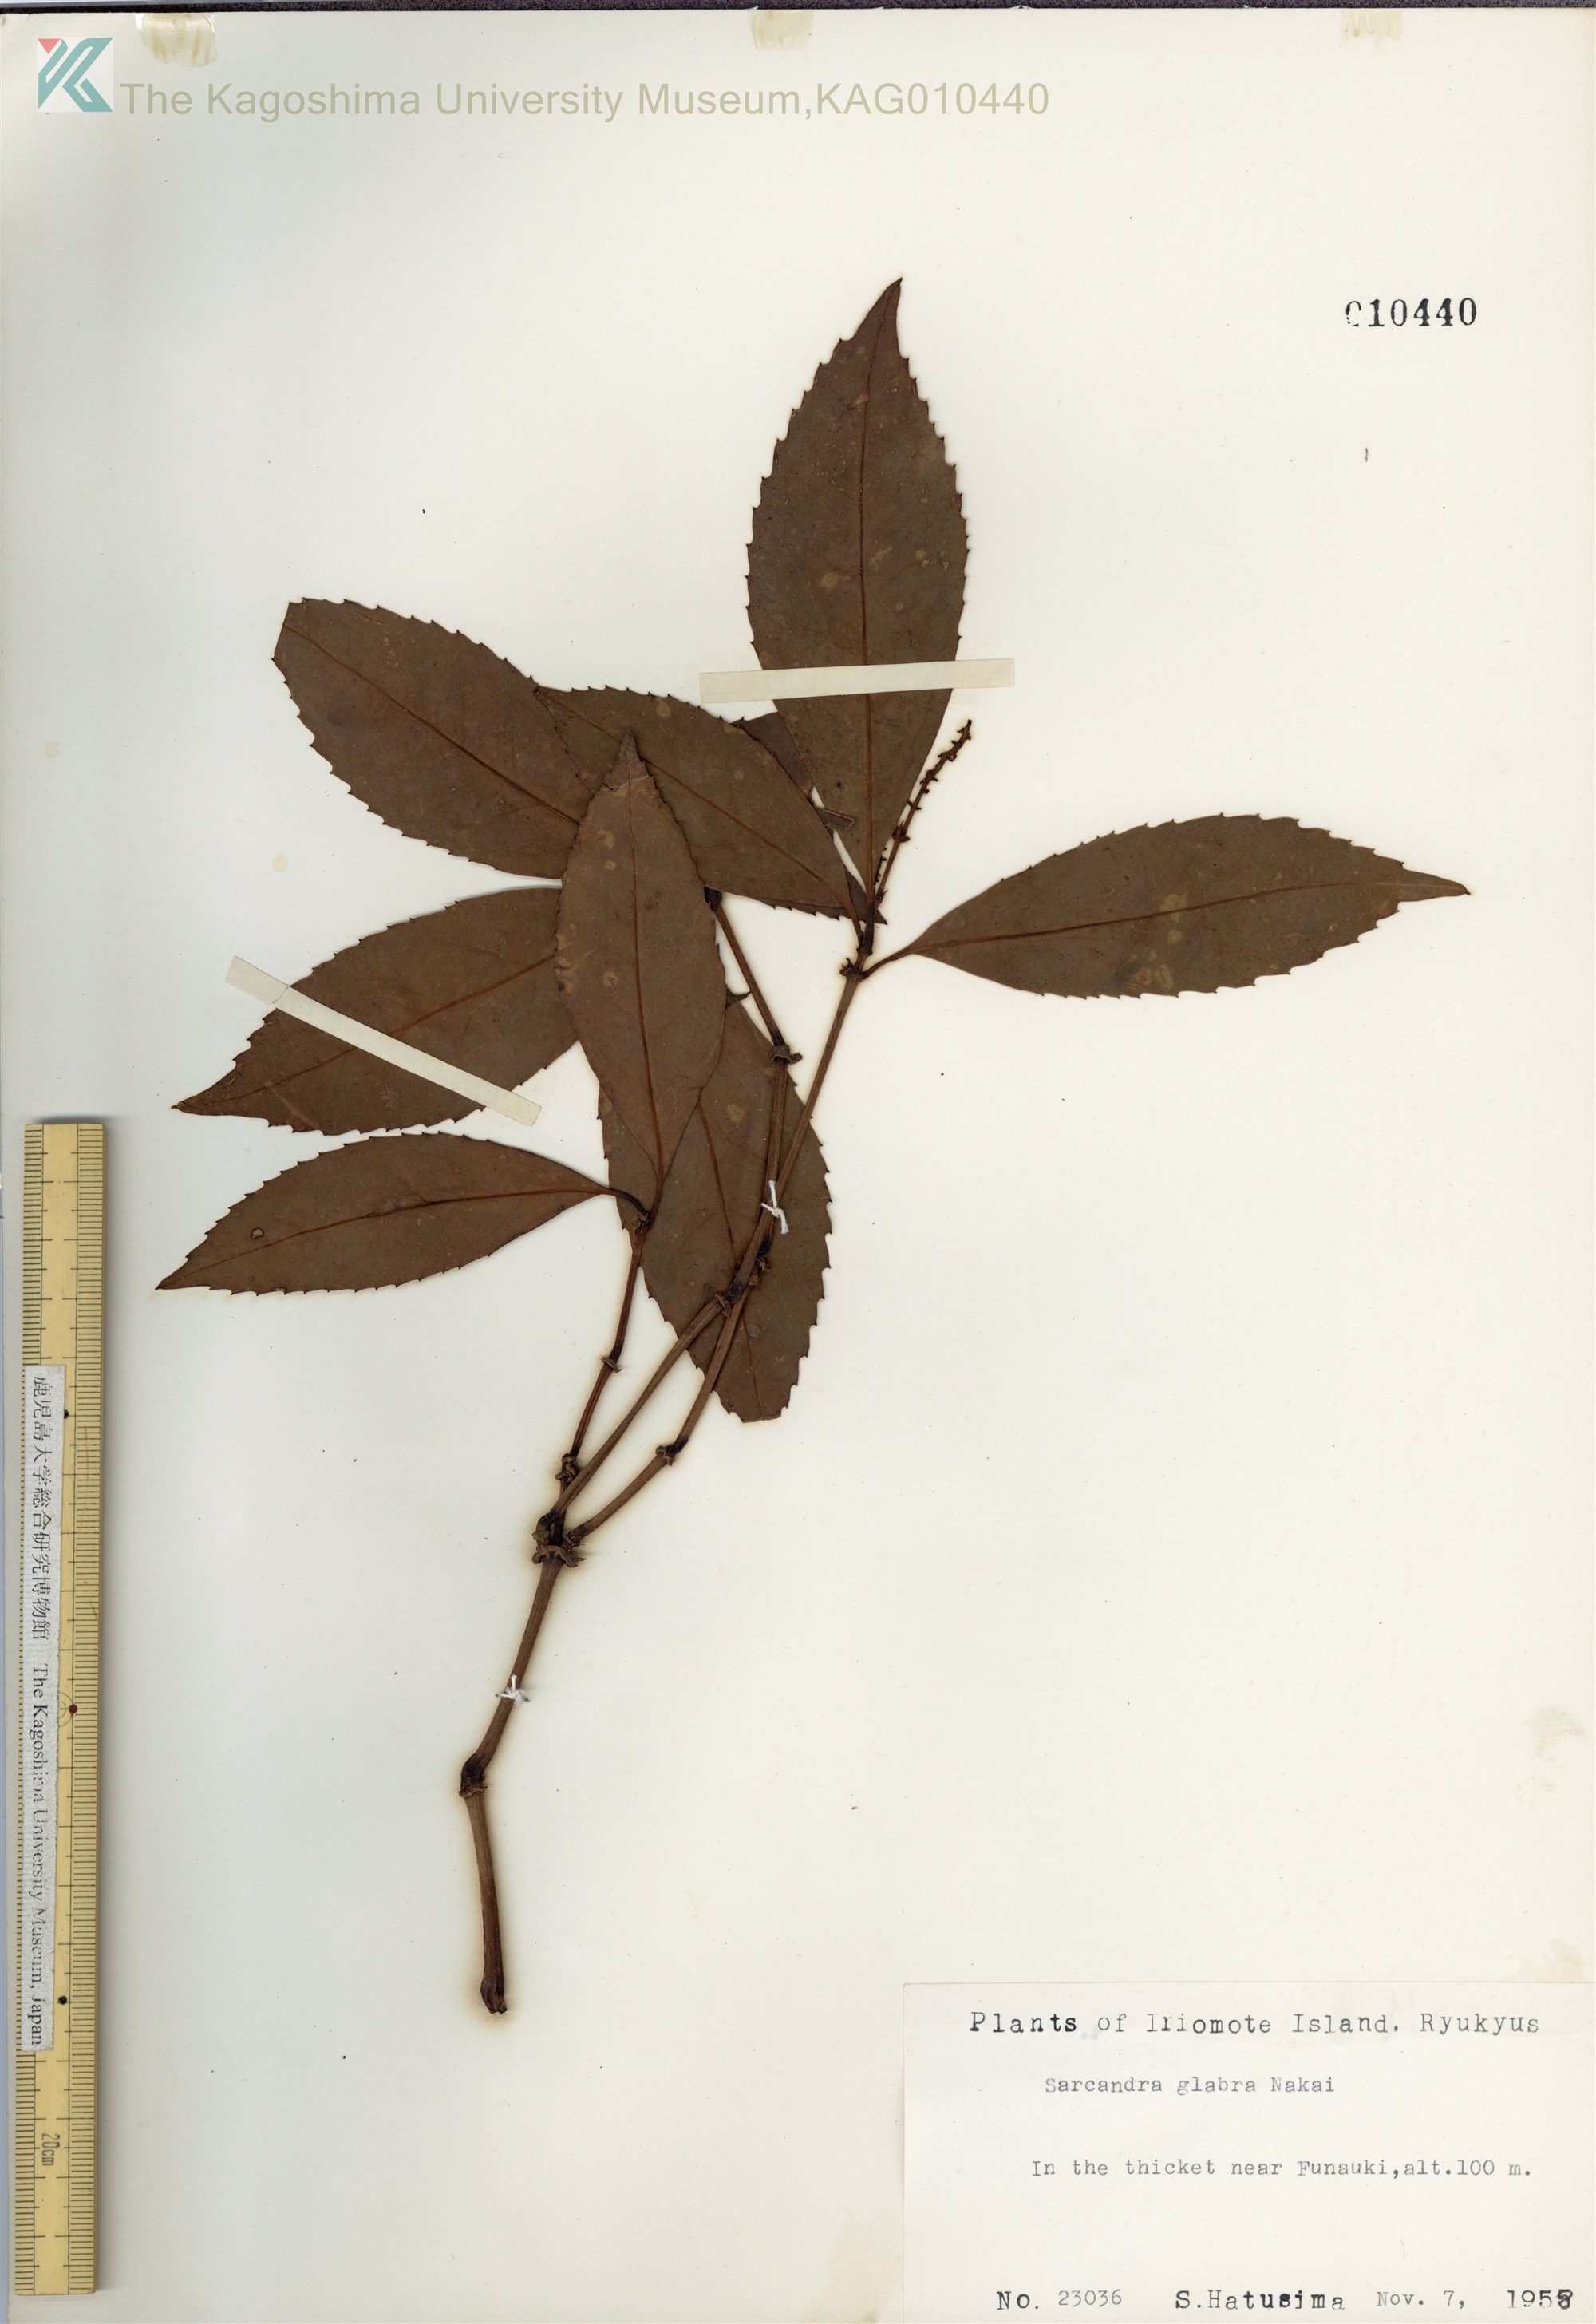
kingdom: Plantae
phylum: Tracheophyta
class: Magnoliopsida
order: Chloranthales
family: Chloranthaceae
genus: Sarcandra
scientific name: Sarcandra glabra
